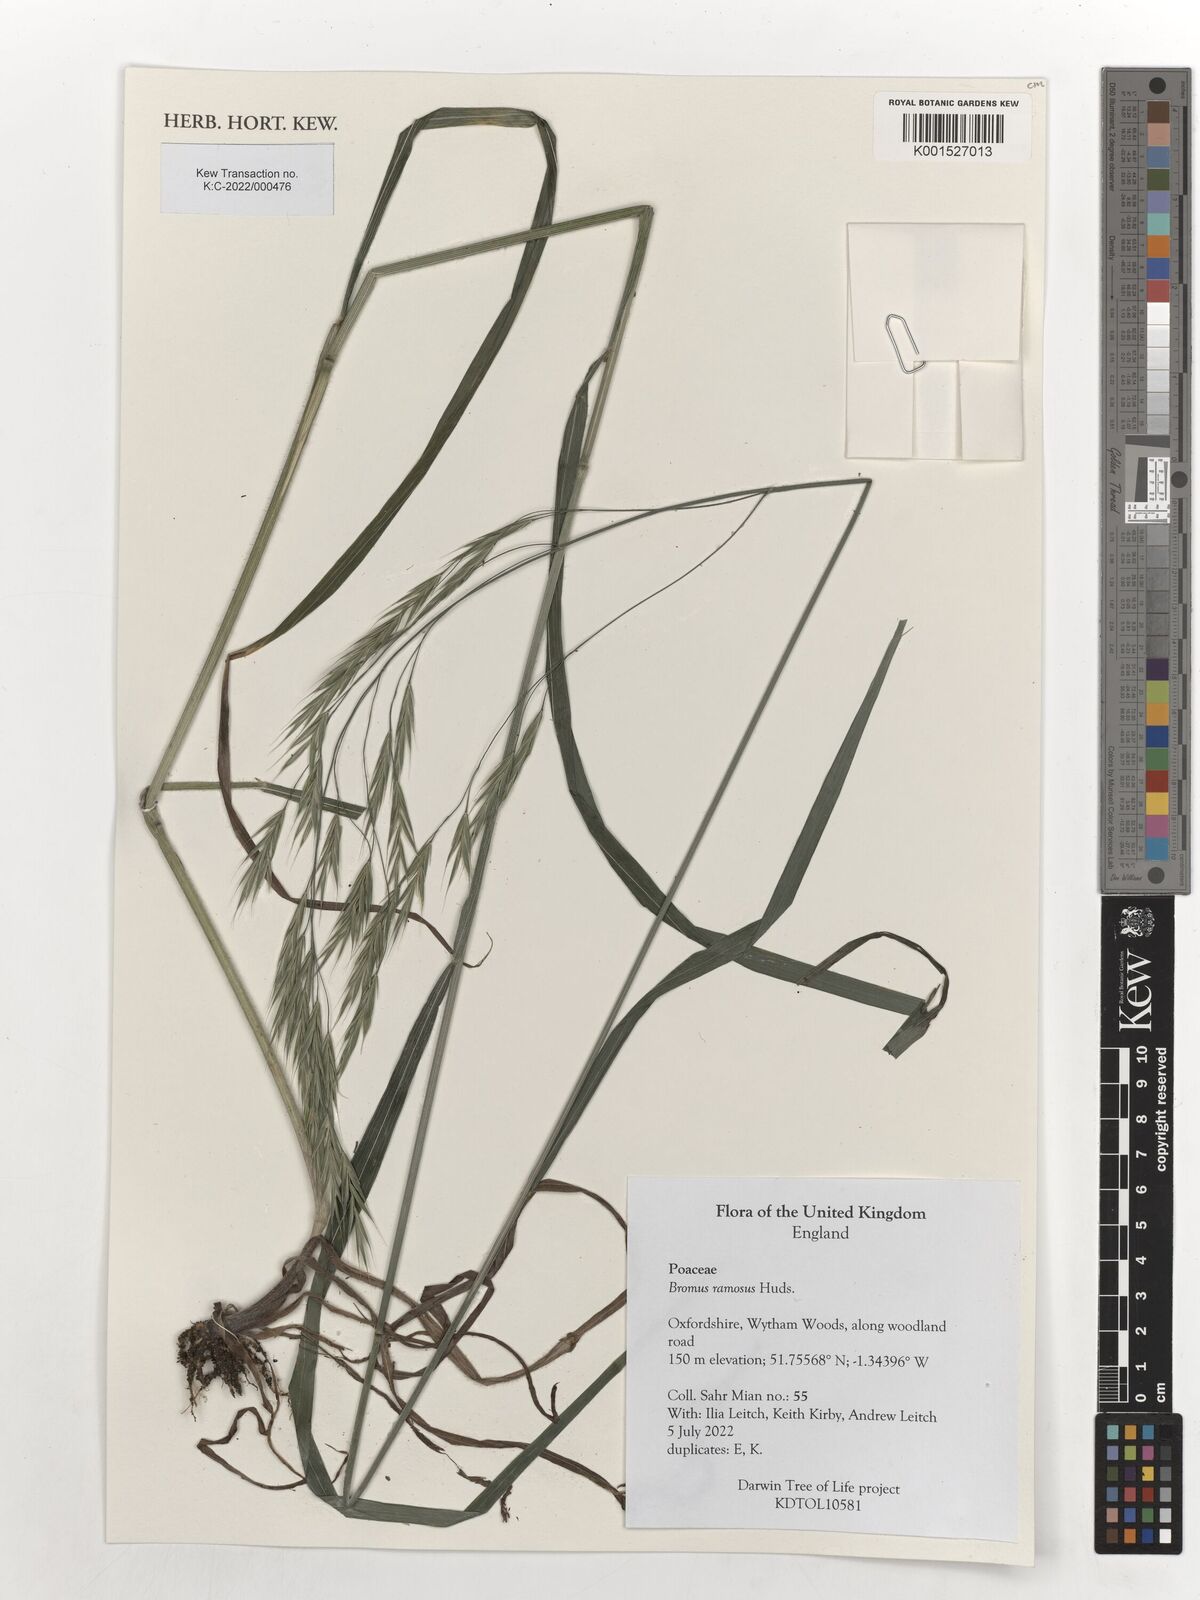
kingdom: Plantae
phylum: Tracheophyta
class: Liliopsida
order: Poales
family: Poaceae
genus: Bromus
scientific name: Bromus ramosus
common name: Hairy brome
